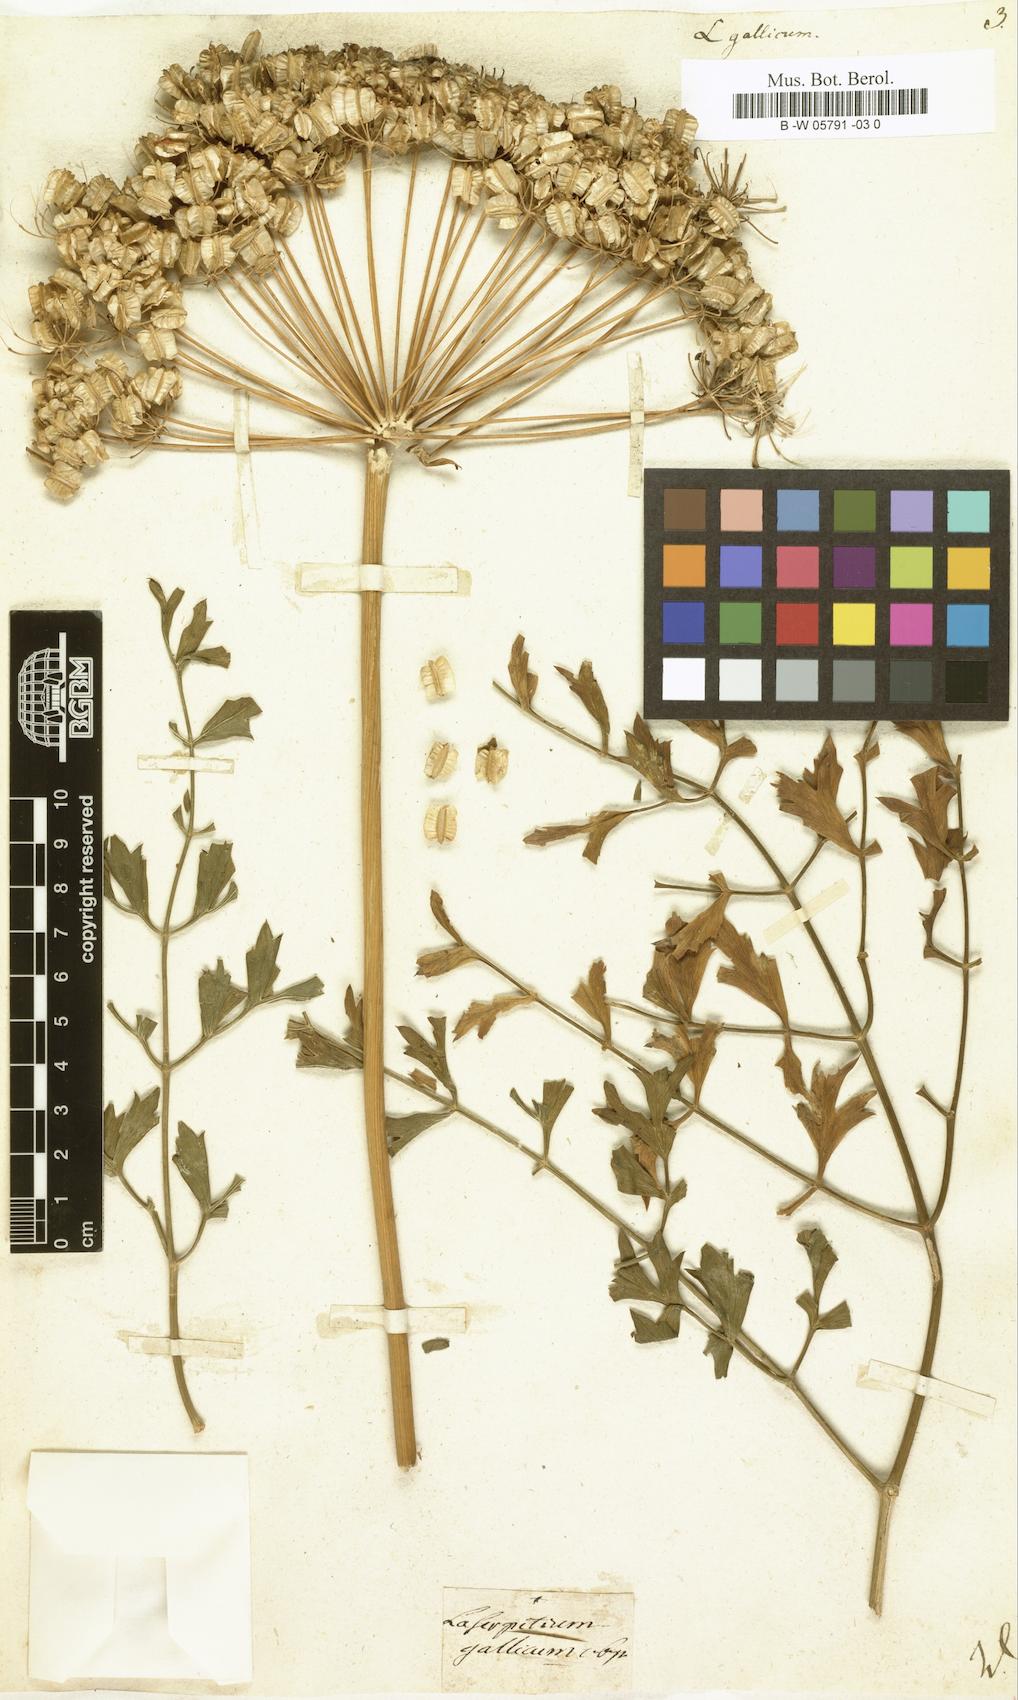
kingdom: Plantae
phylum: Tracheophyta
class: Magnoliopsida
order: Apiales
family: Apiaceae
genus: Laserpitium
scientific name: Laserpitium gallicum
